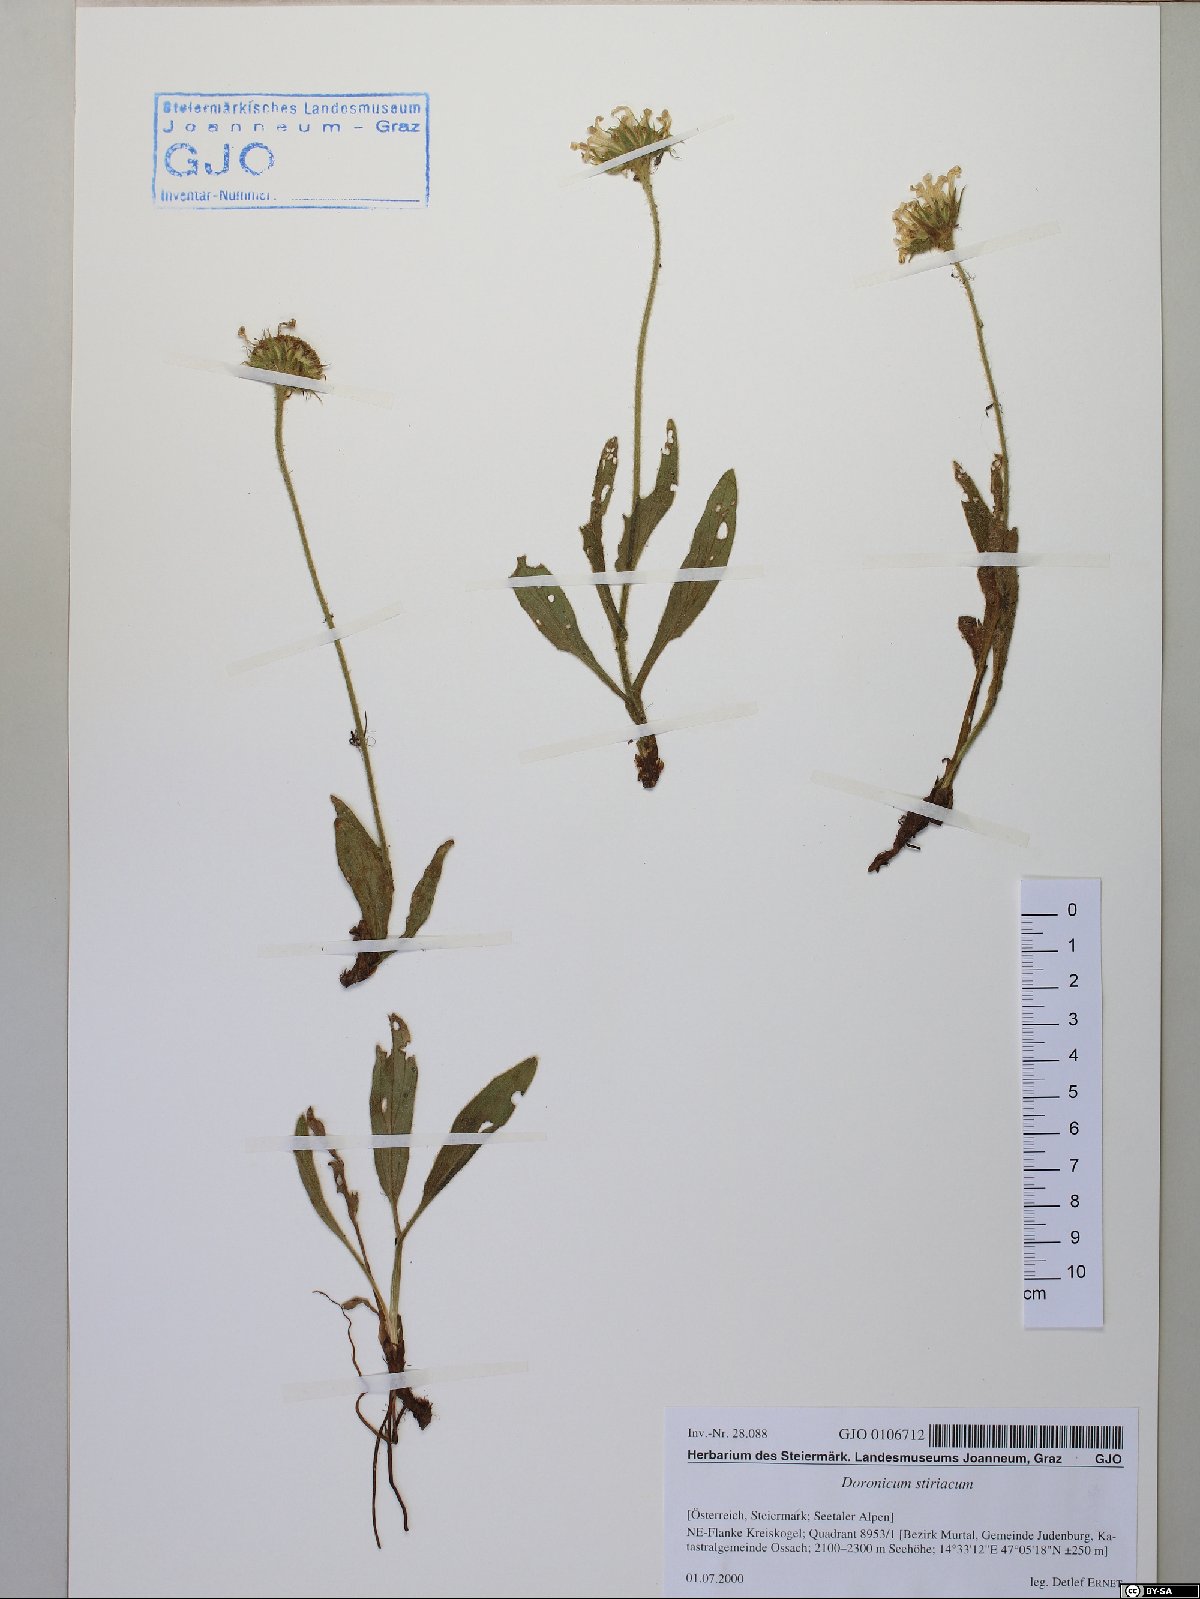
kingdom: Plantae
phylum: Tracheophyta
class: Magnoliopsida
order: Asterales
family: Asteraceae
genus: Doronicum
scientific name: Doronicum clusii
